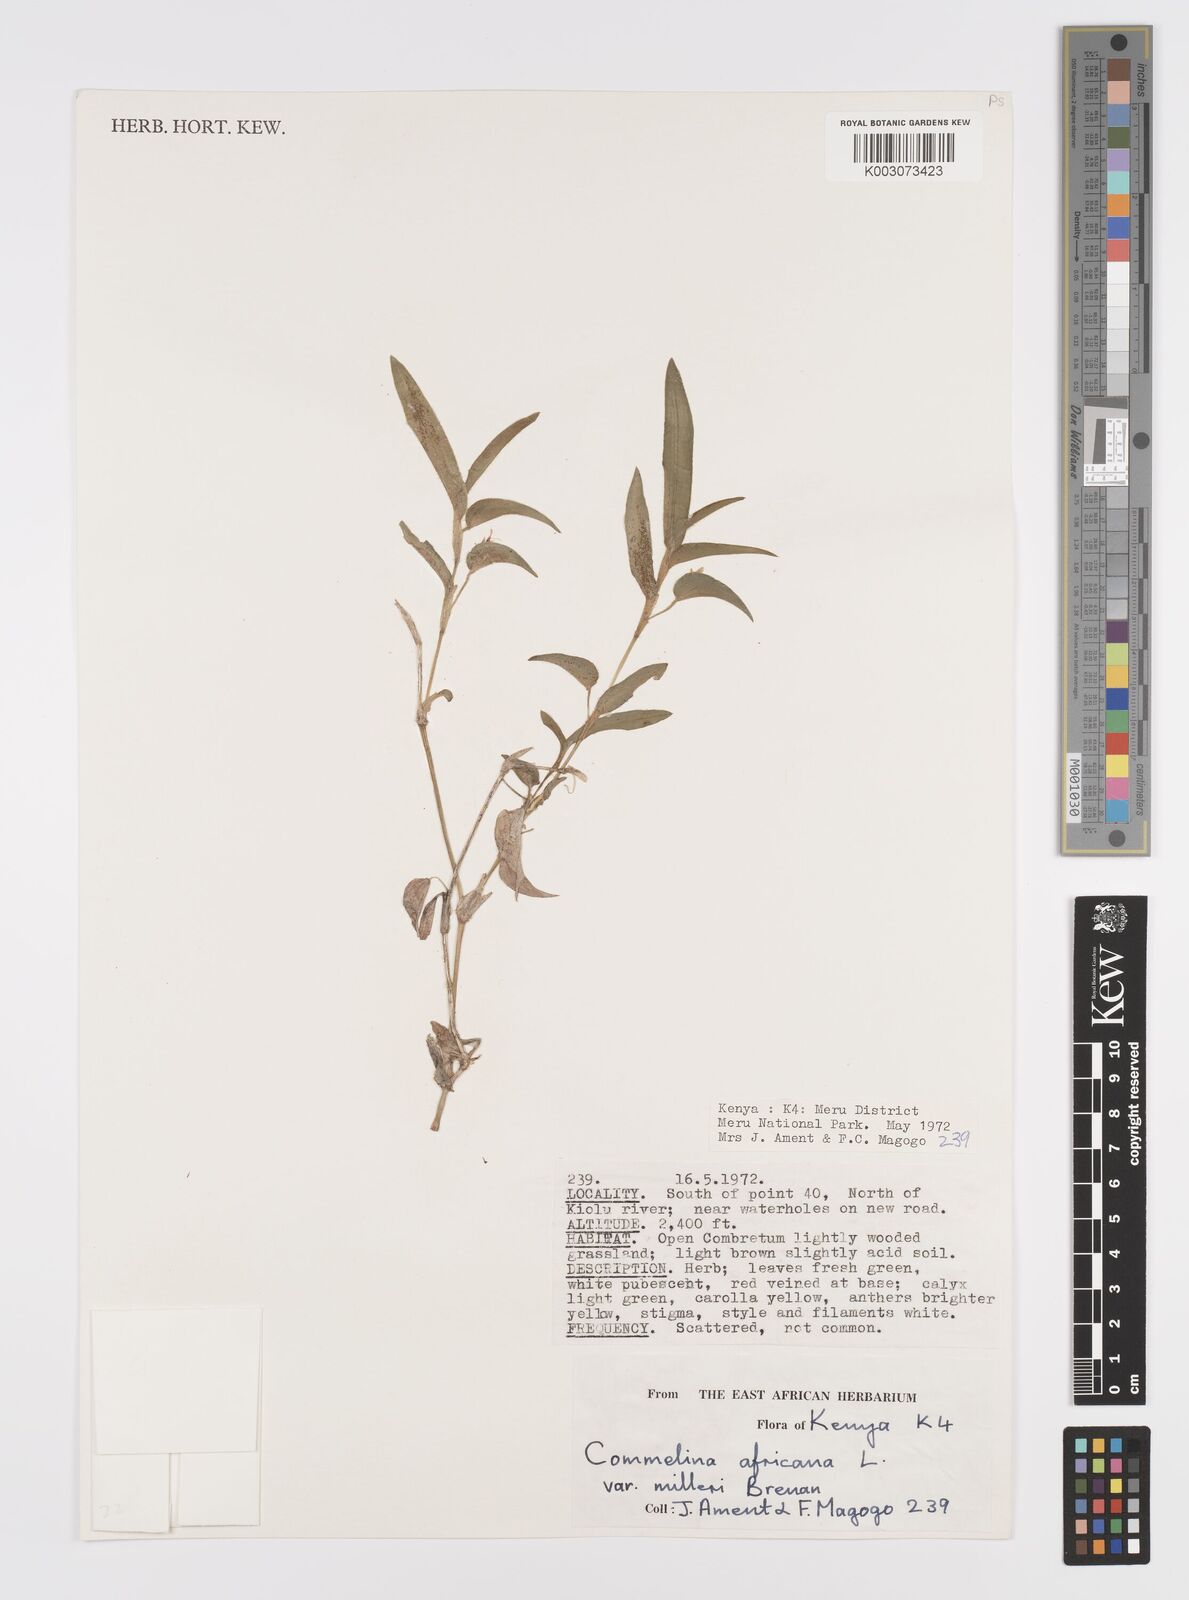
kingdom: Plantae
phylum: Tracheophyta
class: Liliopsida
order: Commelinales
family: Commelinaceae
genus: Commelina
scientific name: Commelina africana
